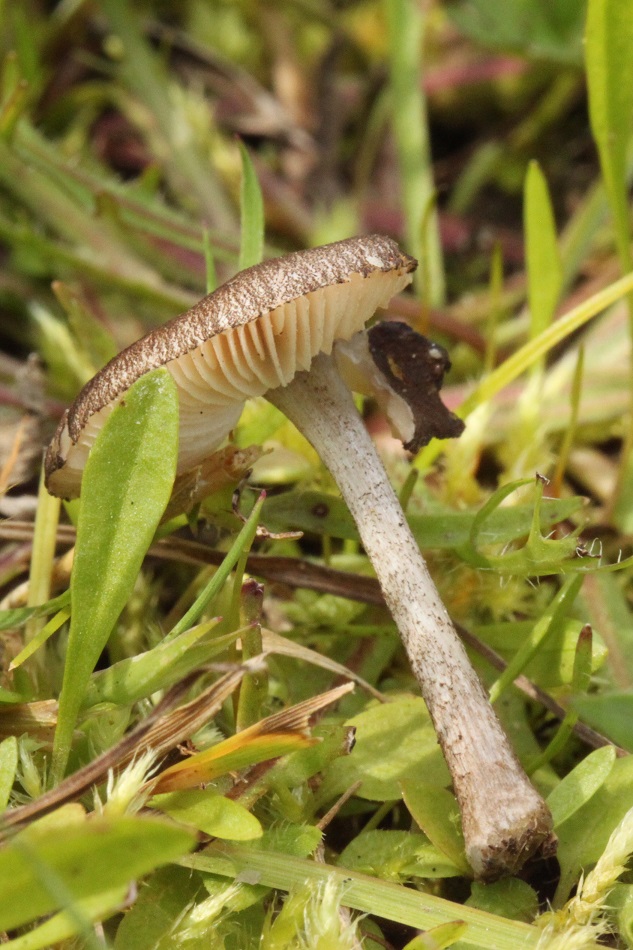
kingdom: Fungi
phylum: Basidiomycota
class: Agaricomycetes
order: Agaricales
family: Pluteaceae
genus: Pluteus
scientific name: Pluteus podospileus
